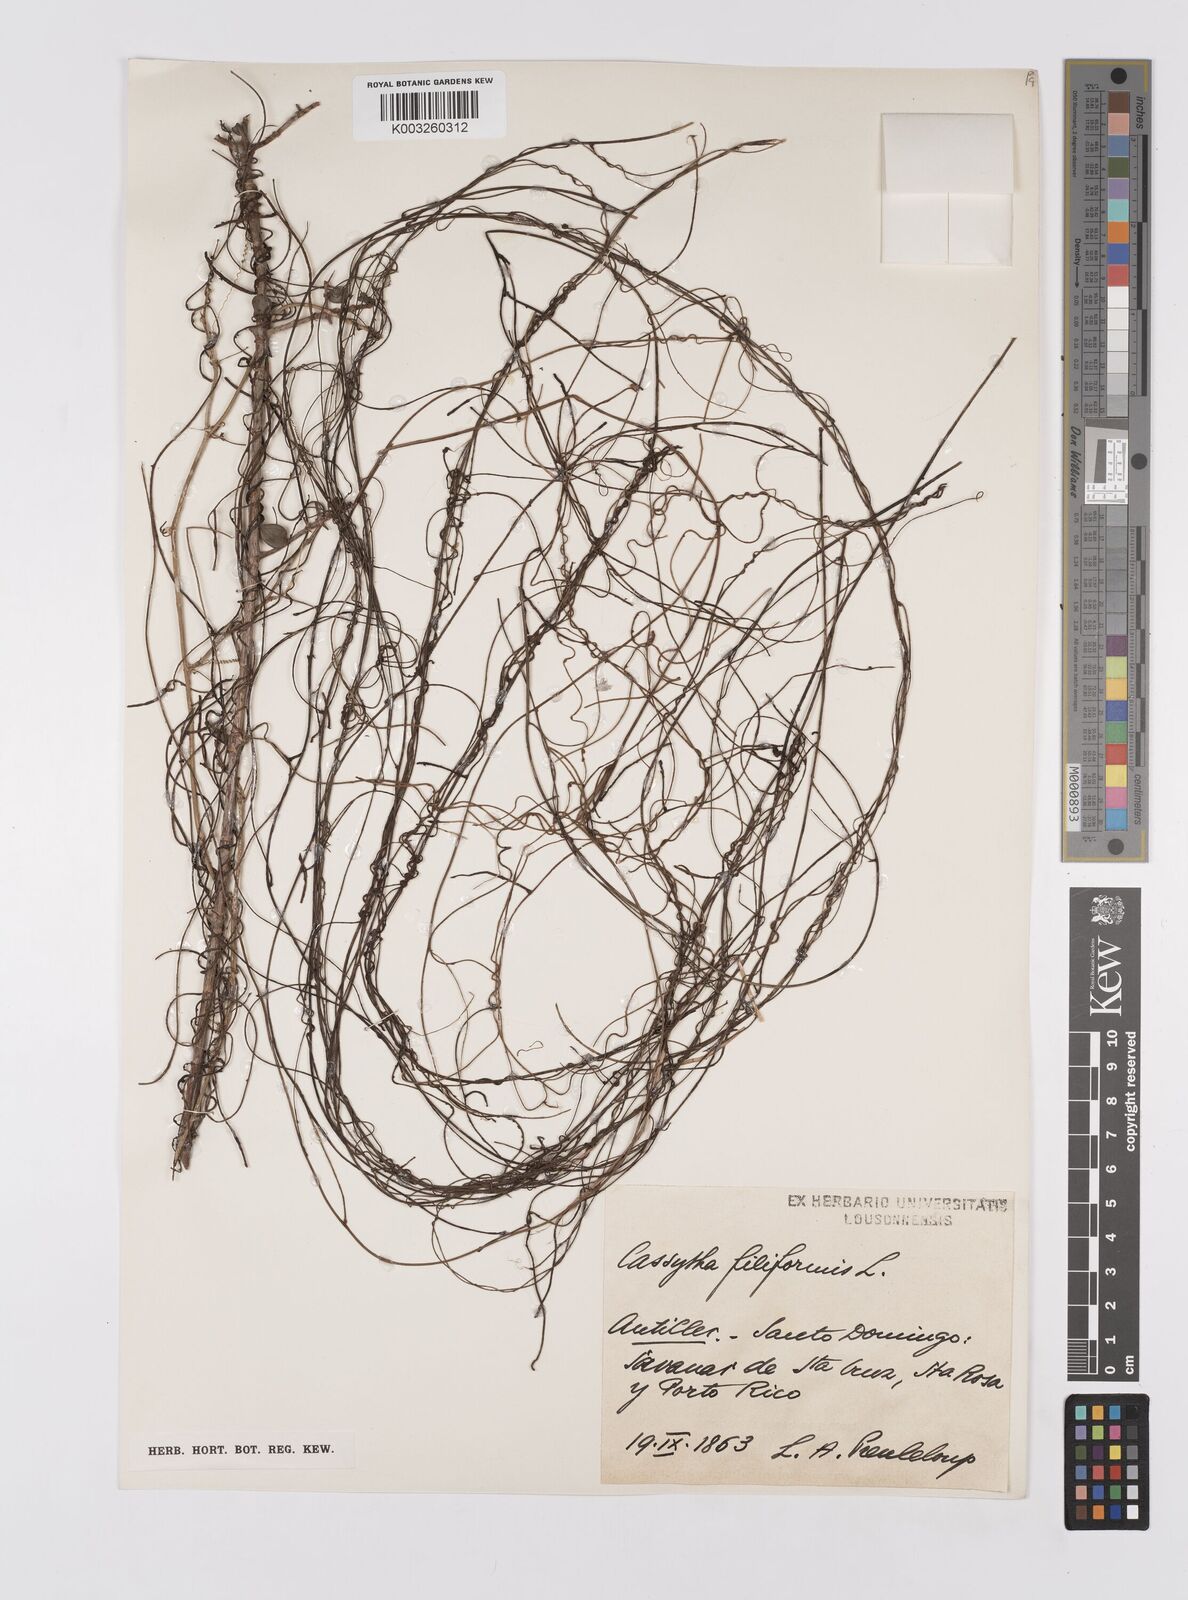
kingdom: Plantae
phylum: Tracheophyta
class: Magnoliopsida
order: Laurales
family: Lauraceae
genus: Cassytha
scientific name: Cassytha filiformis
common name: Dodder-laurel
